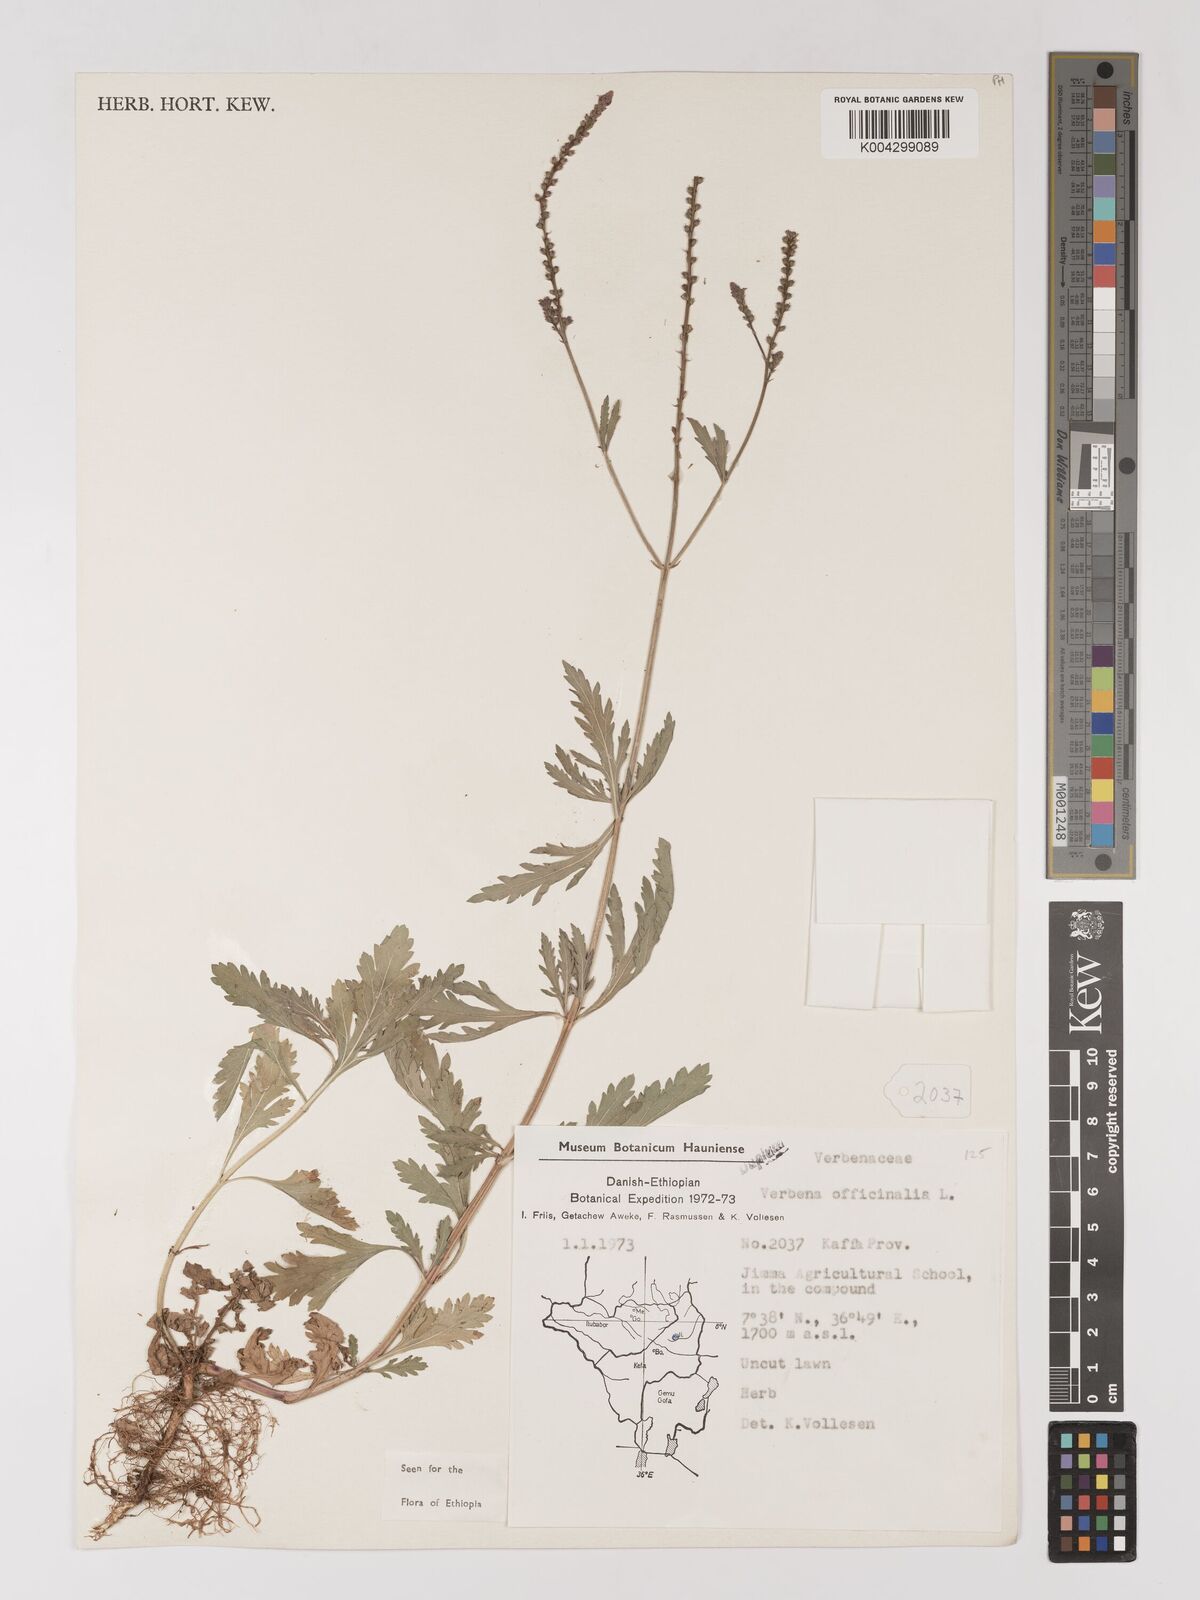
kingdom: Plantae
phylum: Tracheophyta
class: Magnoliopsida
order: Lamiales
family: Verbenaceae
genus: Verbena
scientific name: Verbena officinalis
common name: Vervain
